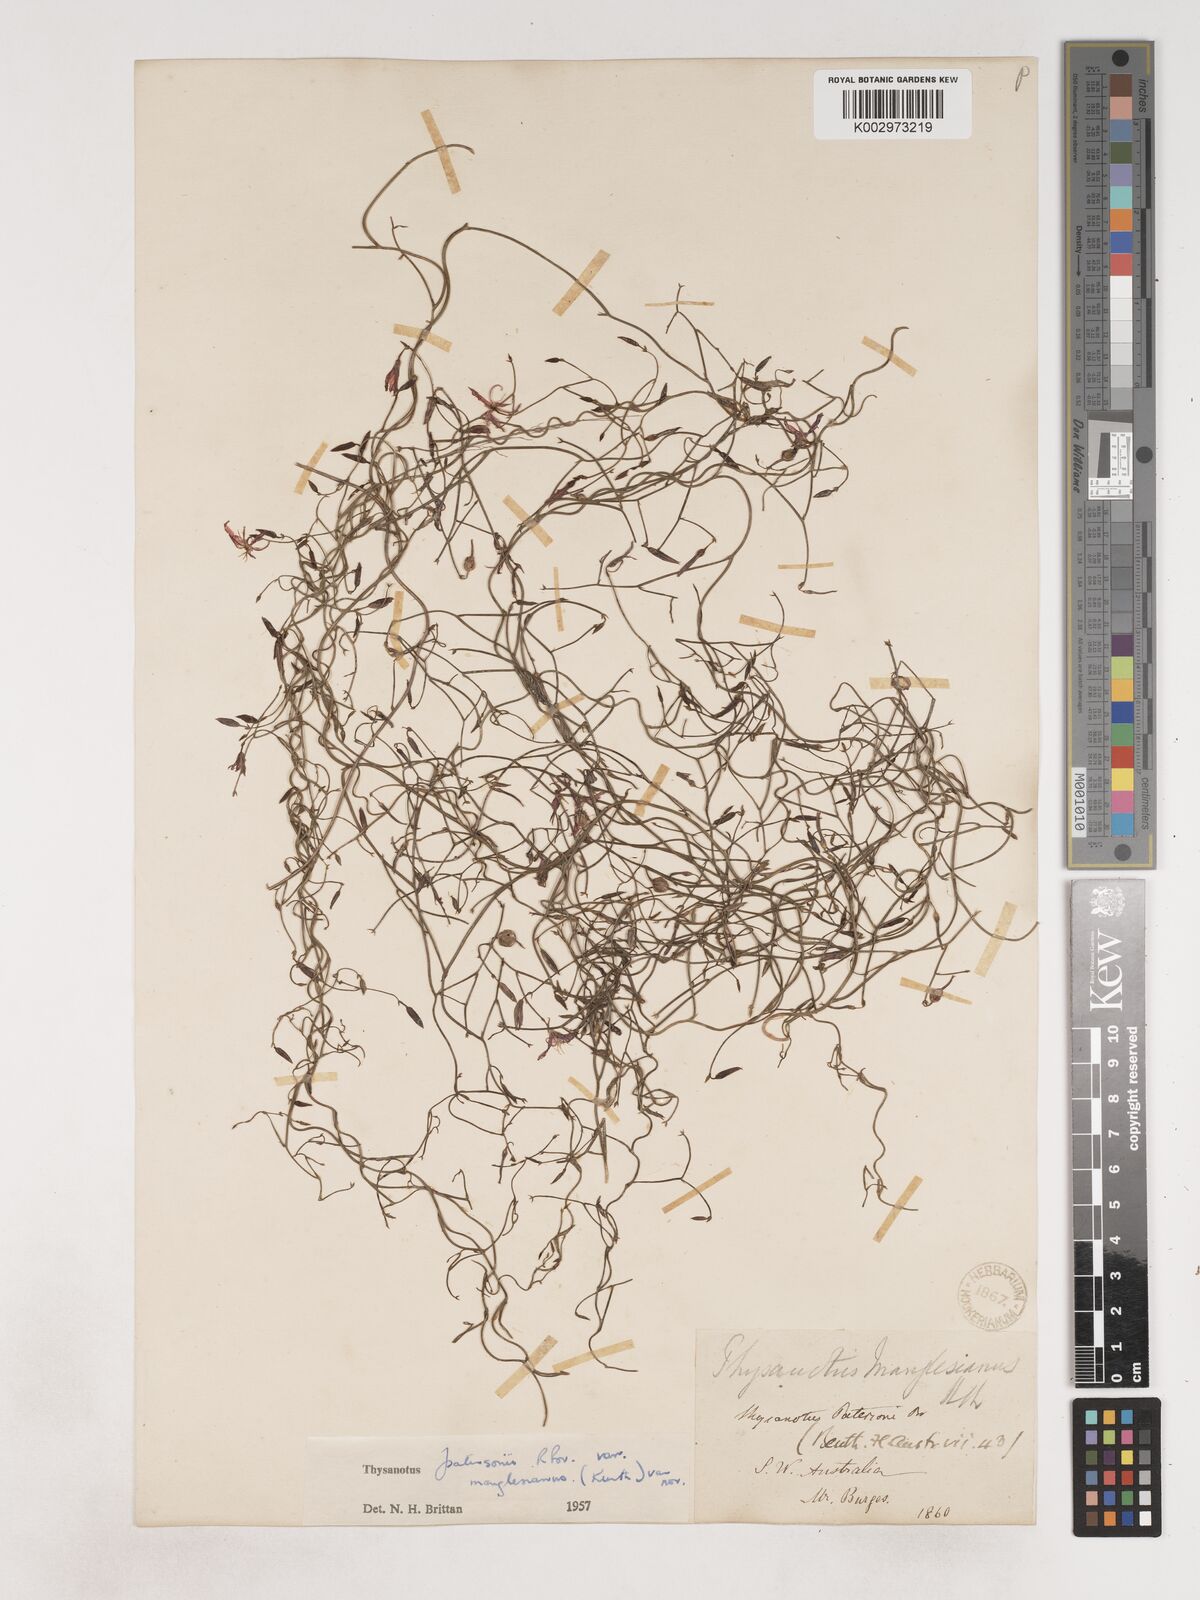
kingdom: Plantae
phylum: Tracheophyta
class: Liliopsida
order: Asparagales
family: Asparagaceae
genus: Thysanotus
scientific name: Thysanotus manglesianus
